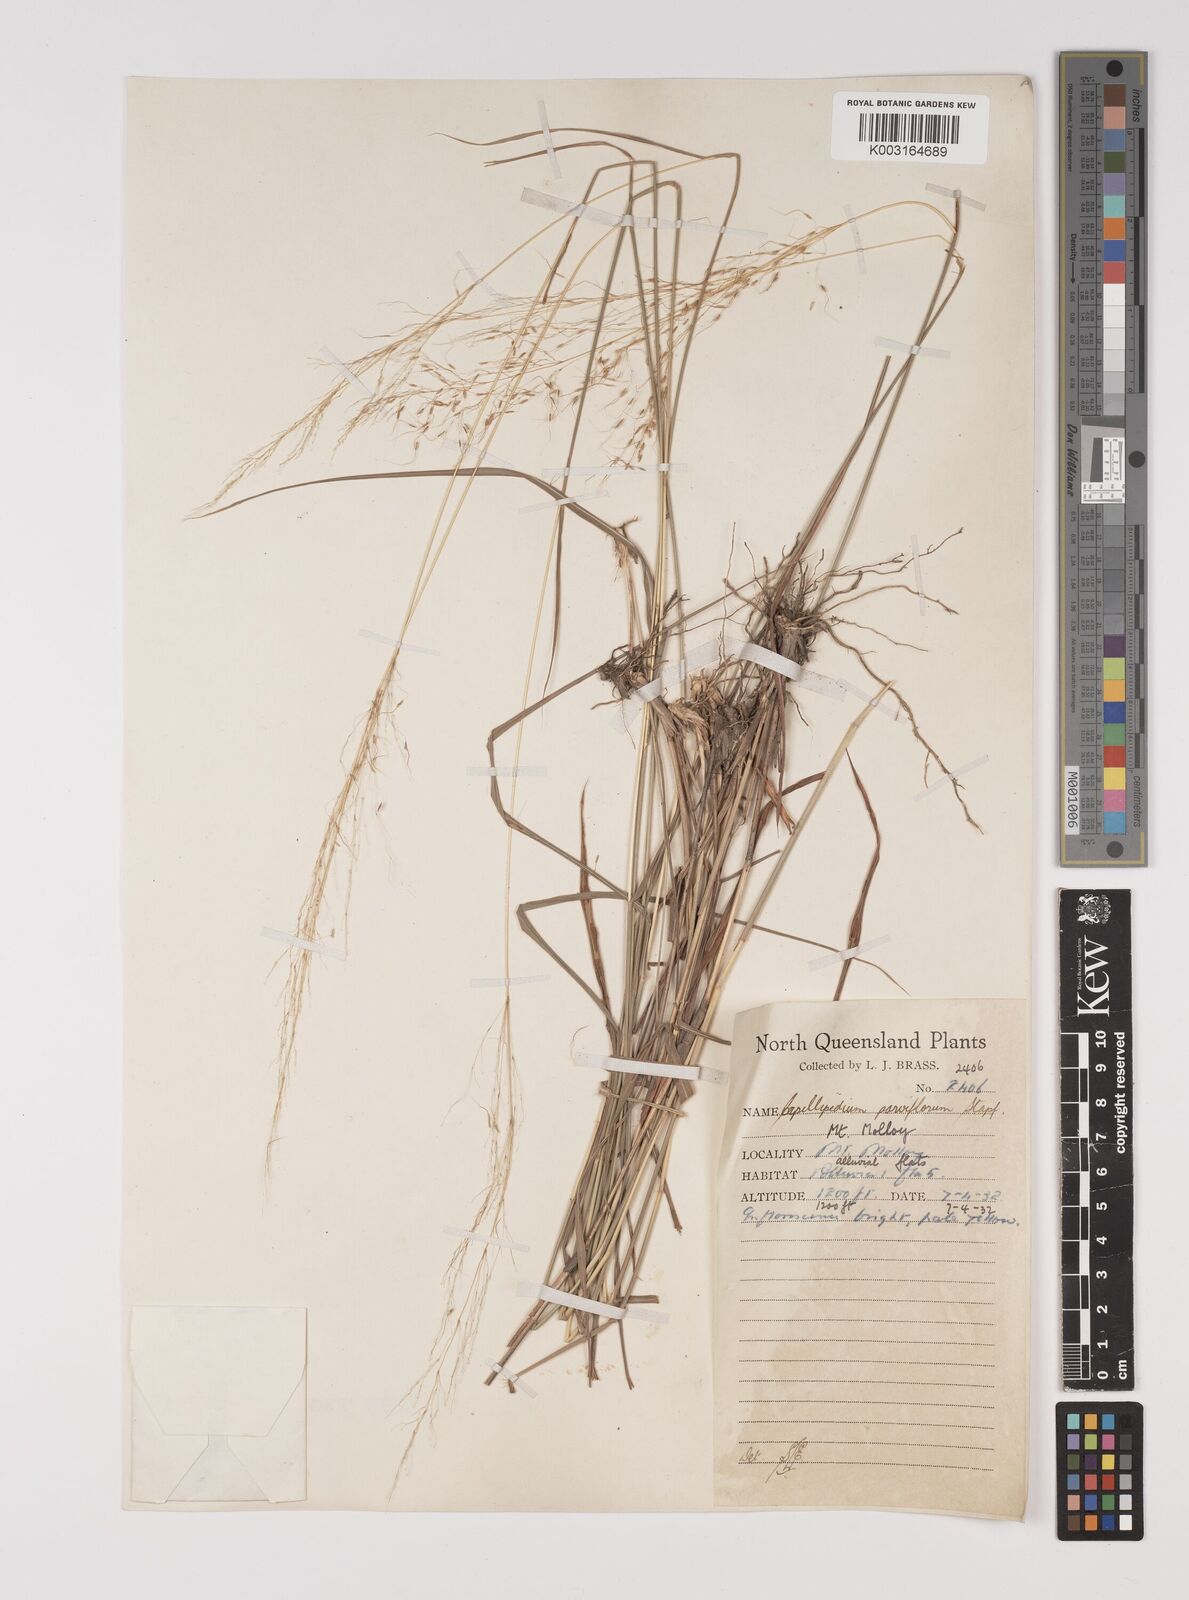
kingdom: Plantae
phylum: Tracheophyta
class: Liliopsida
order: Poales
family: Poaceae
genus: Capillipedium
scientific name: Capillipedium parviflorum
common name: Golden-beard
